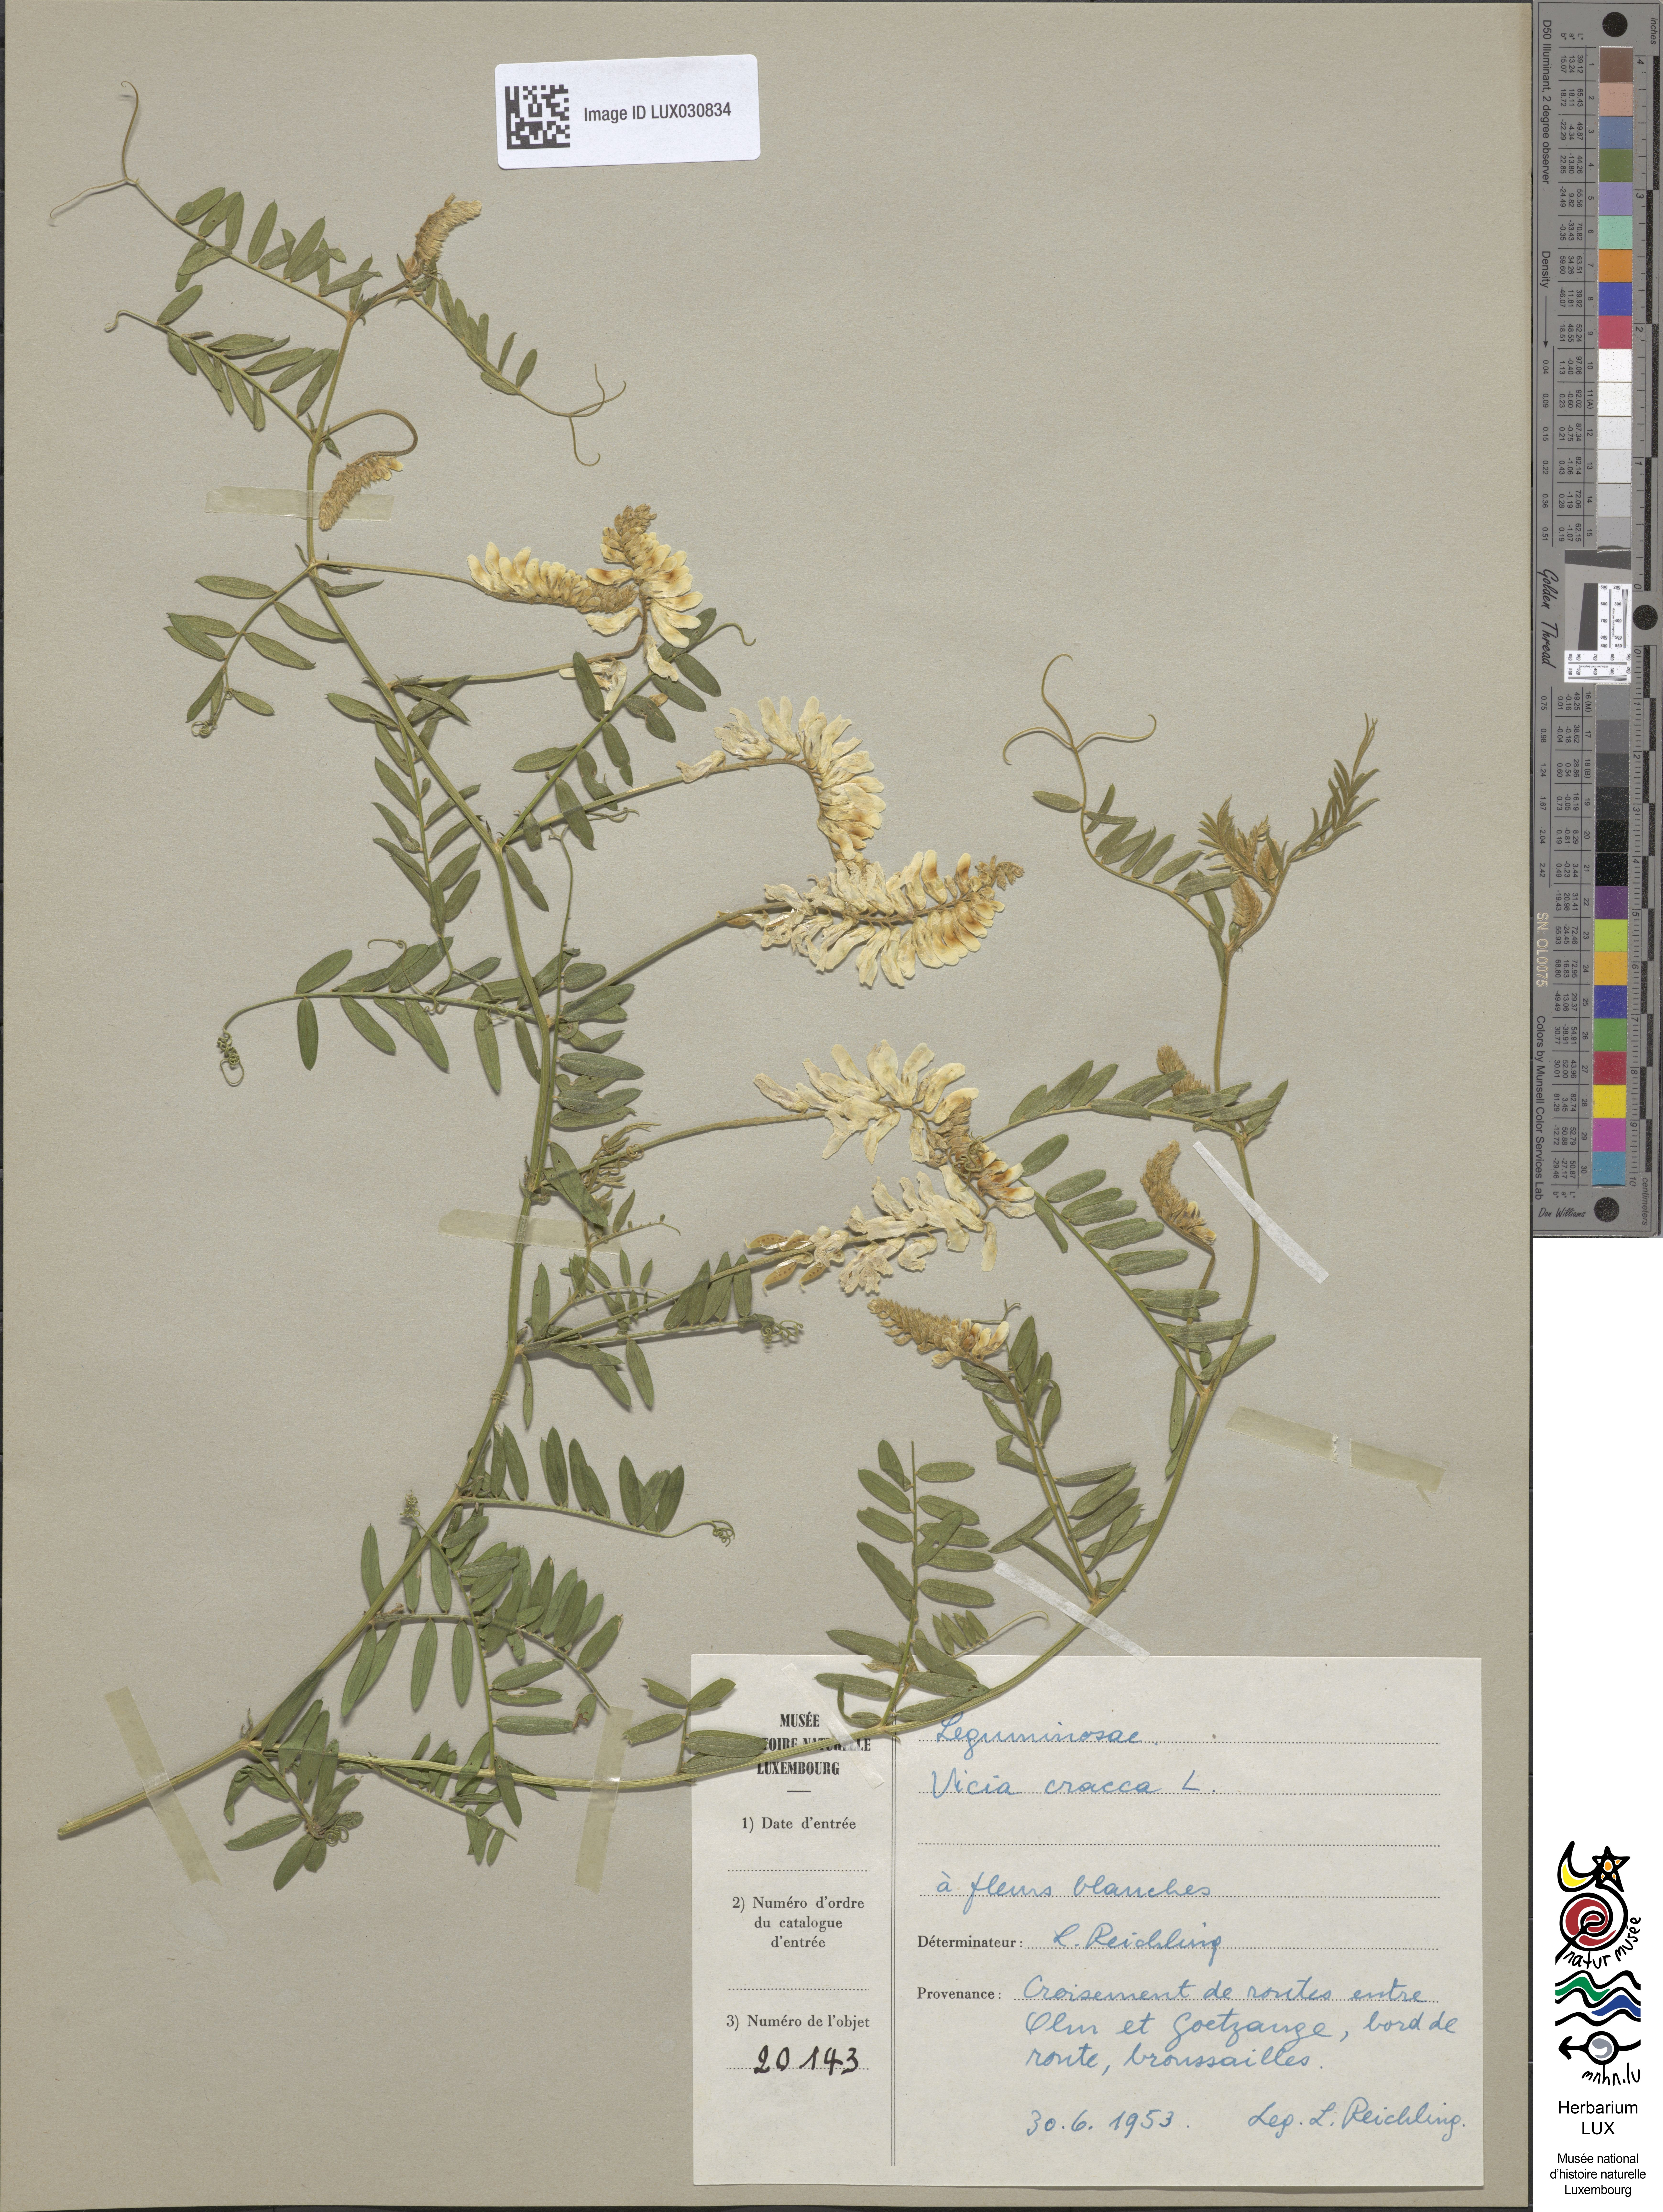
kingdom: Plantae
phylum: Tracheophyta
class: Magnoliopsida
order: Fabales
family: Fabaceae
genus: Vicia
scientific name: Vicia cracca
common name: Bird vetch
